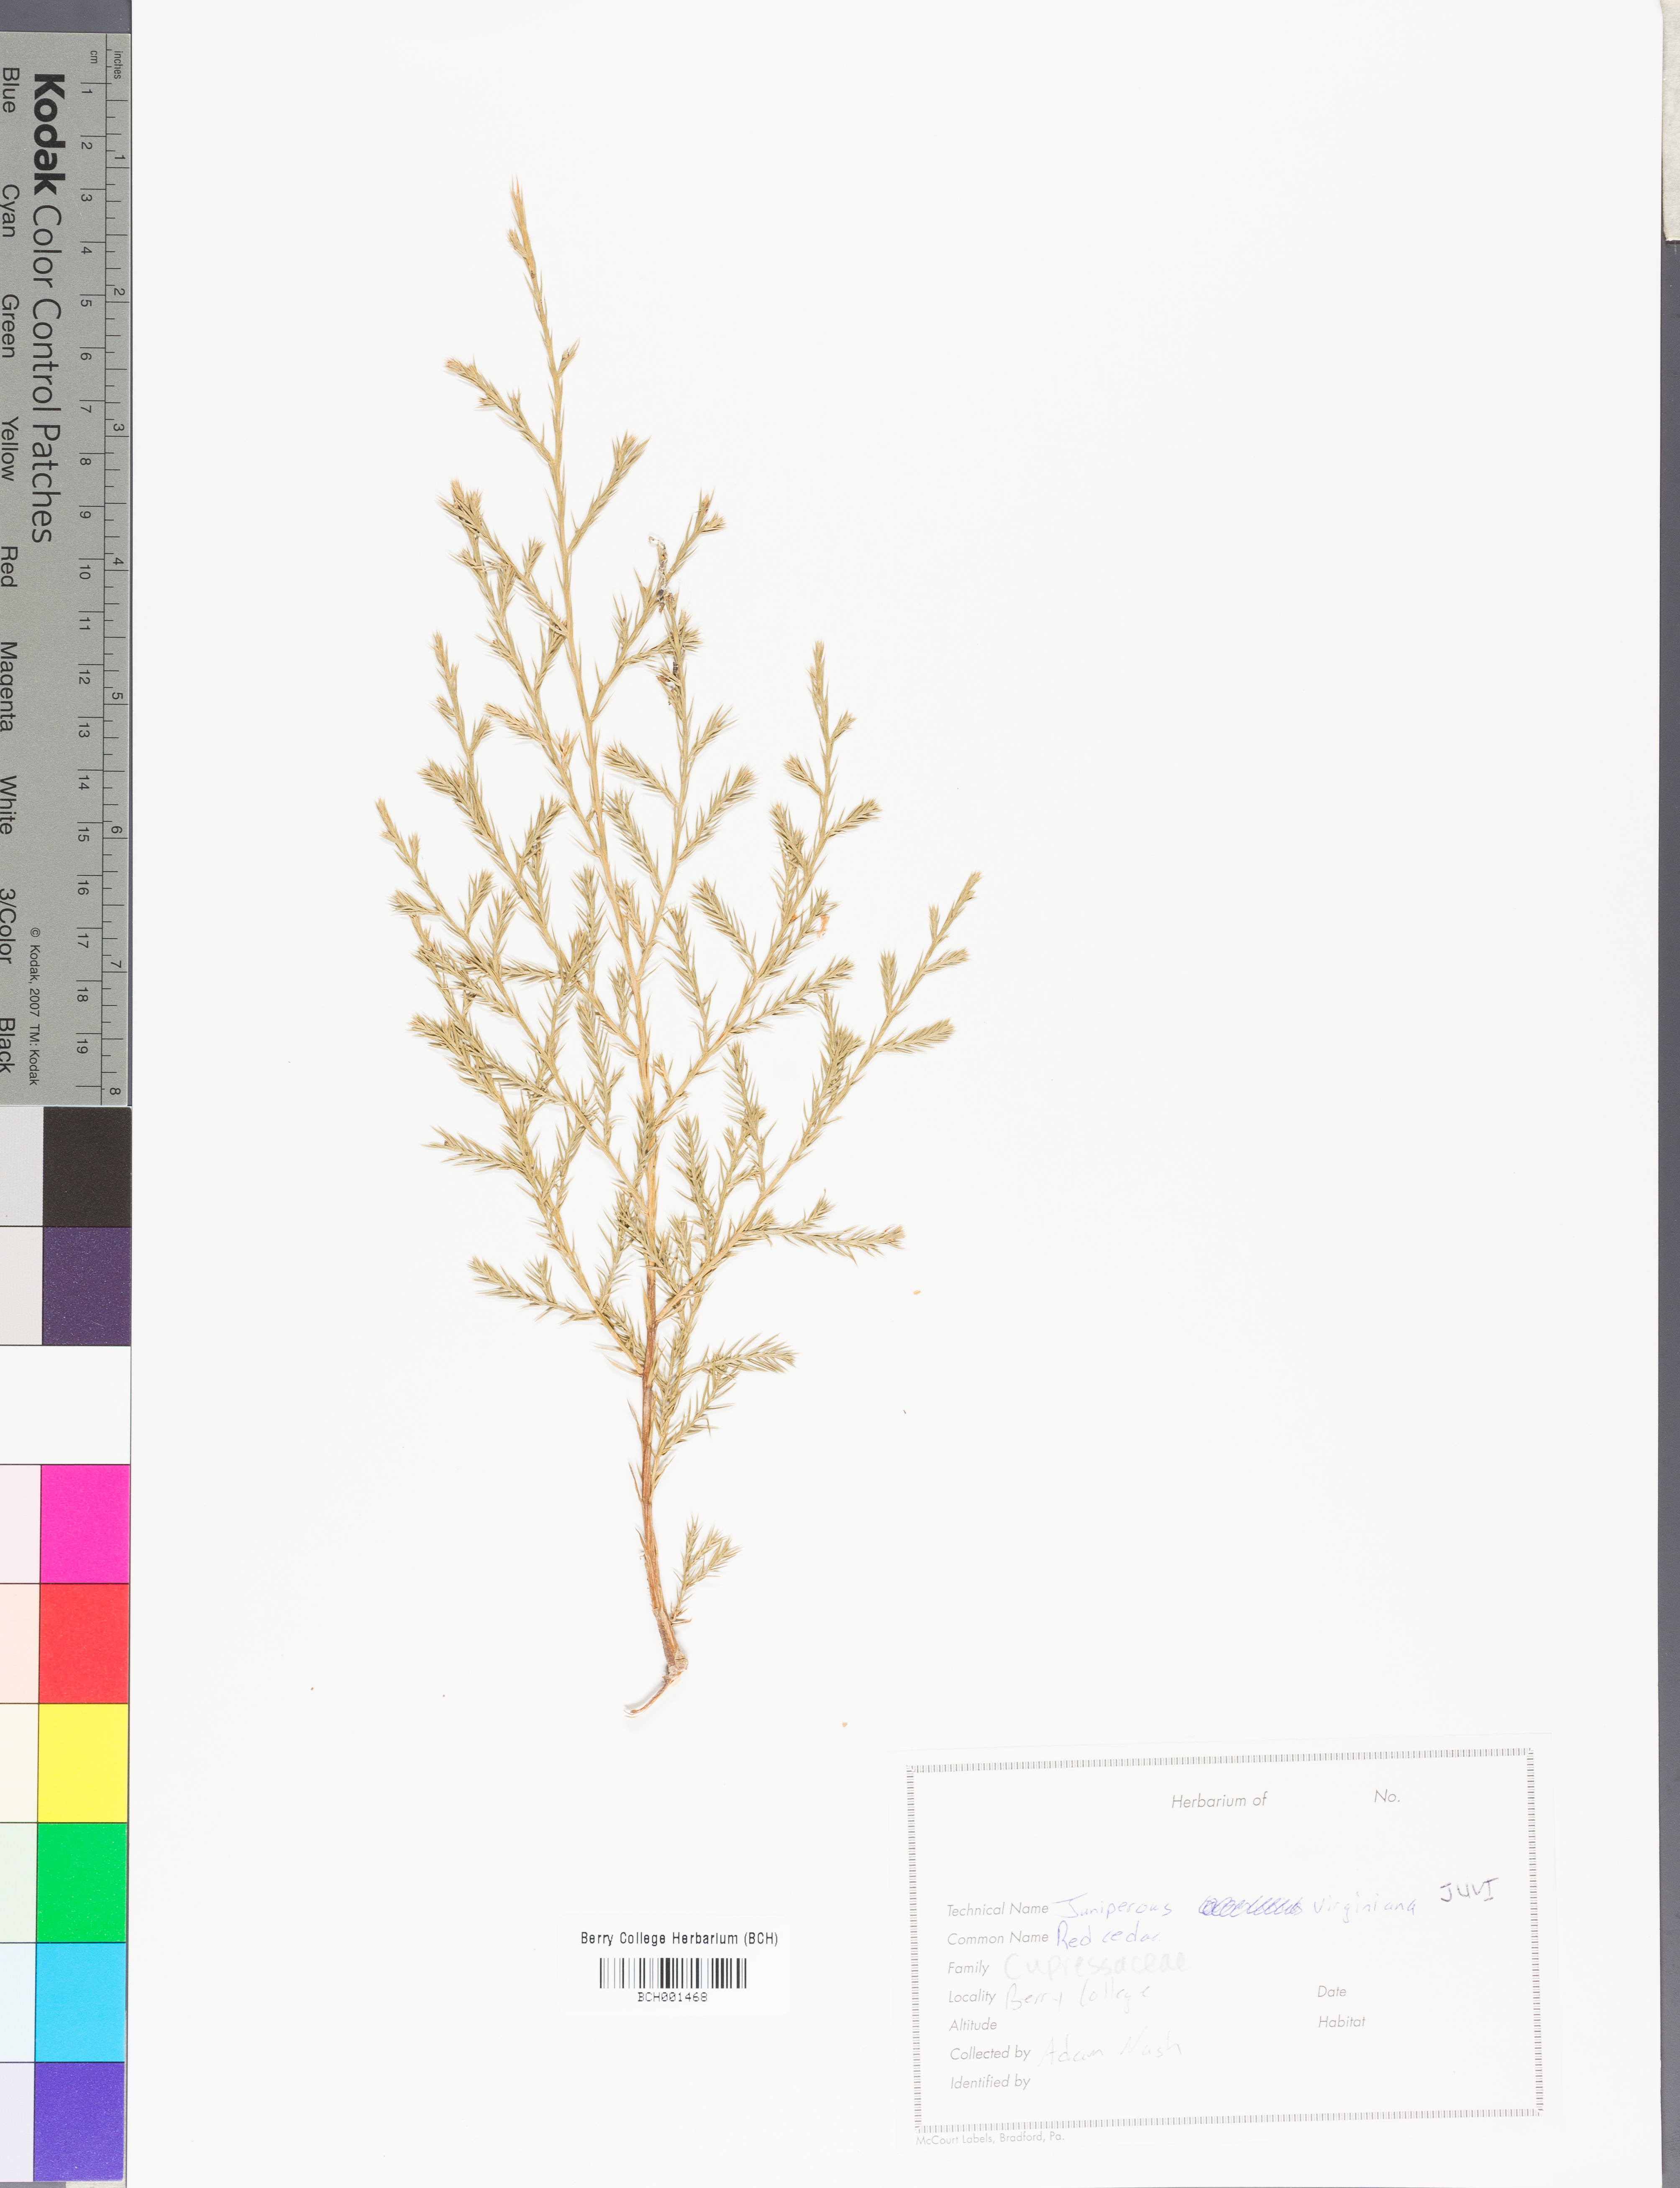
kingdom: Plantae
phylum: Tracheophyta
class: Pinopsida
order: Pinales
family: Cupressaceae
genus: Juniperus
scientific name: Juniperus virginiana
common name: Red juniper
